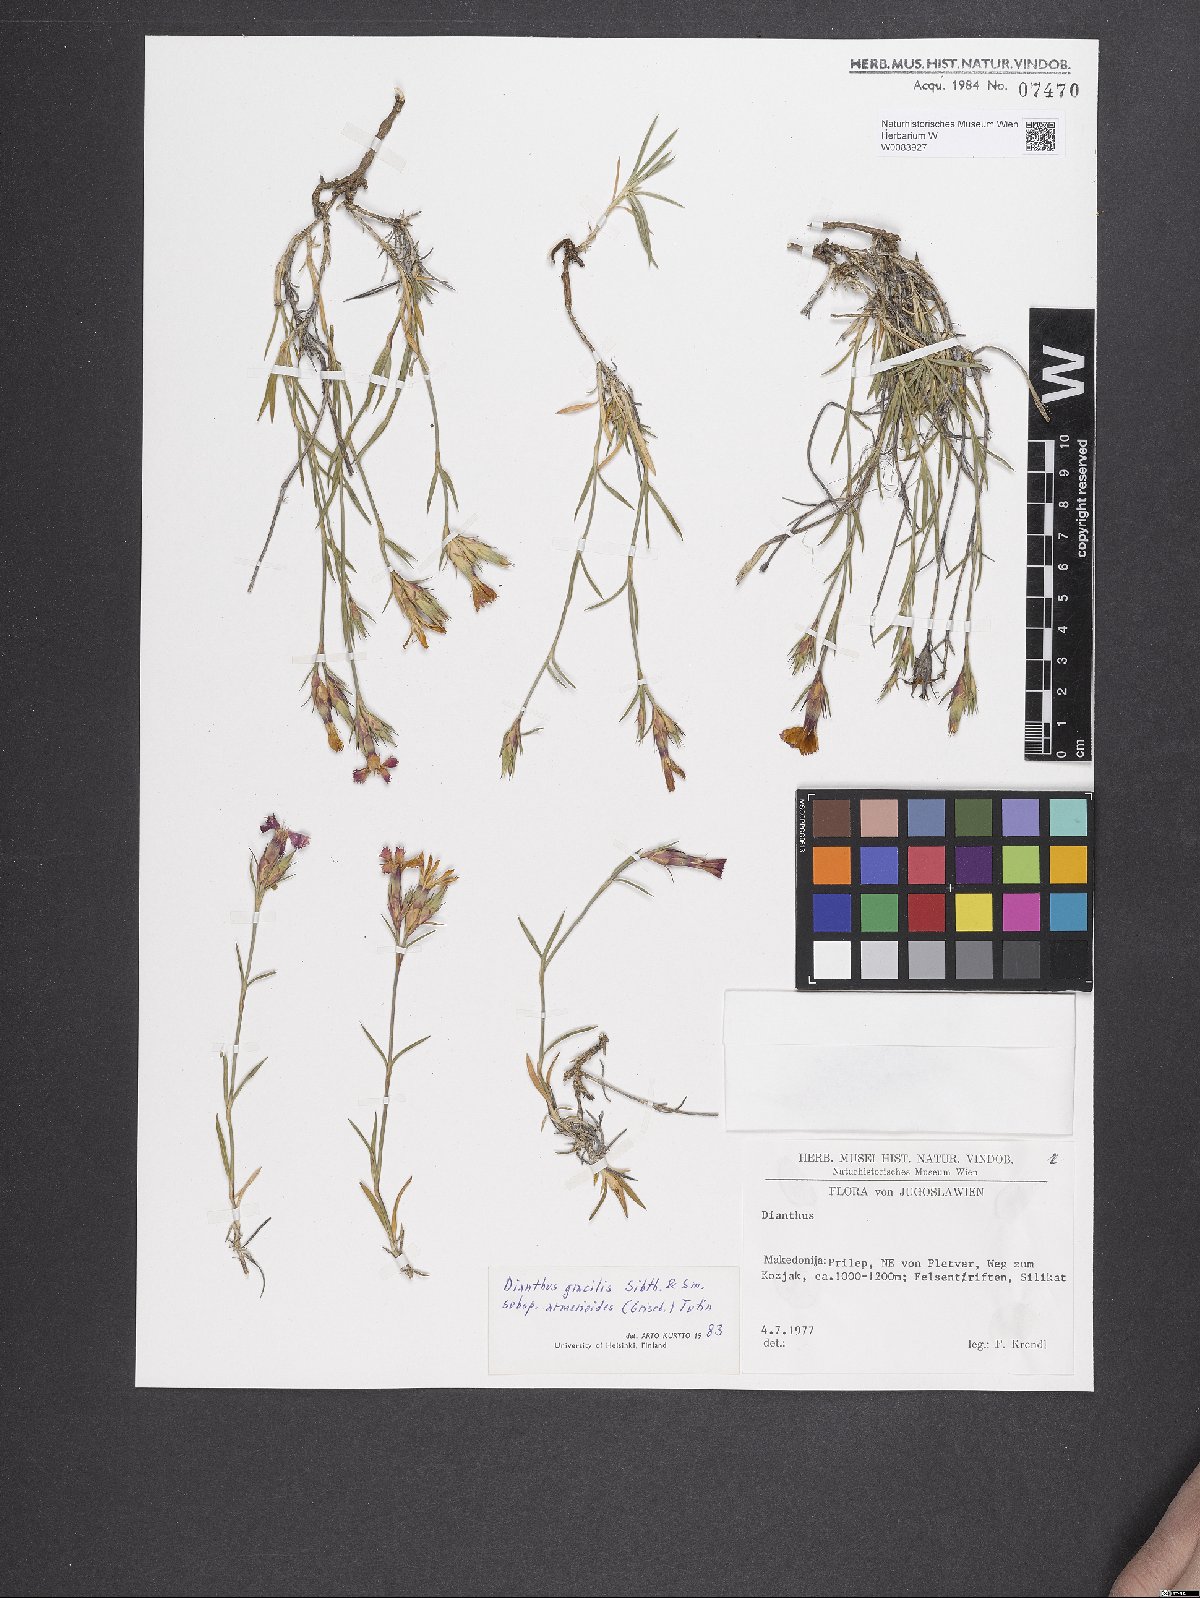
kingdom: Plantae
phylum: Tracheophyta
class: Magnoliopsida
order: Caryophyllales
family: Caryophyllaceae
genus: Dianthus
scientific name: Dianthus gracilis
